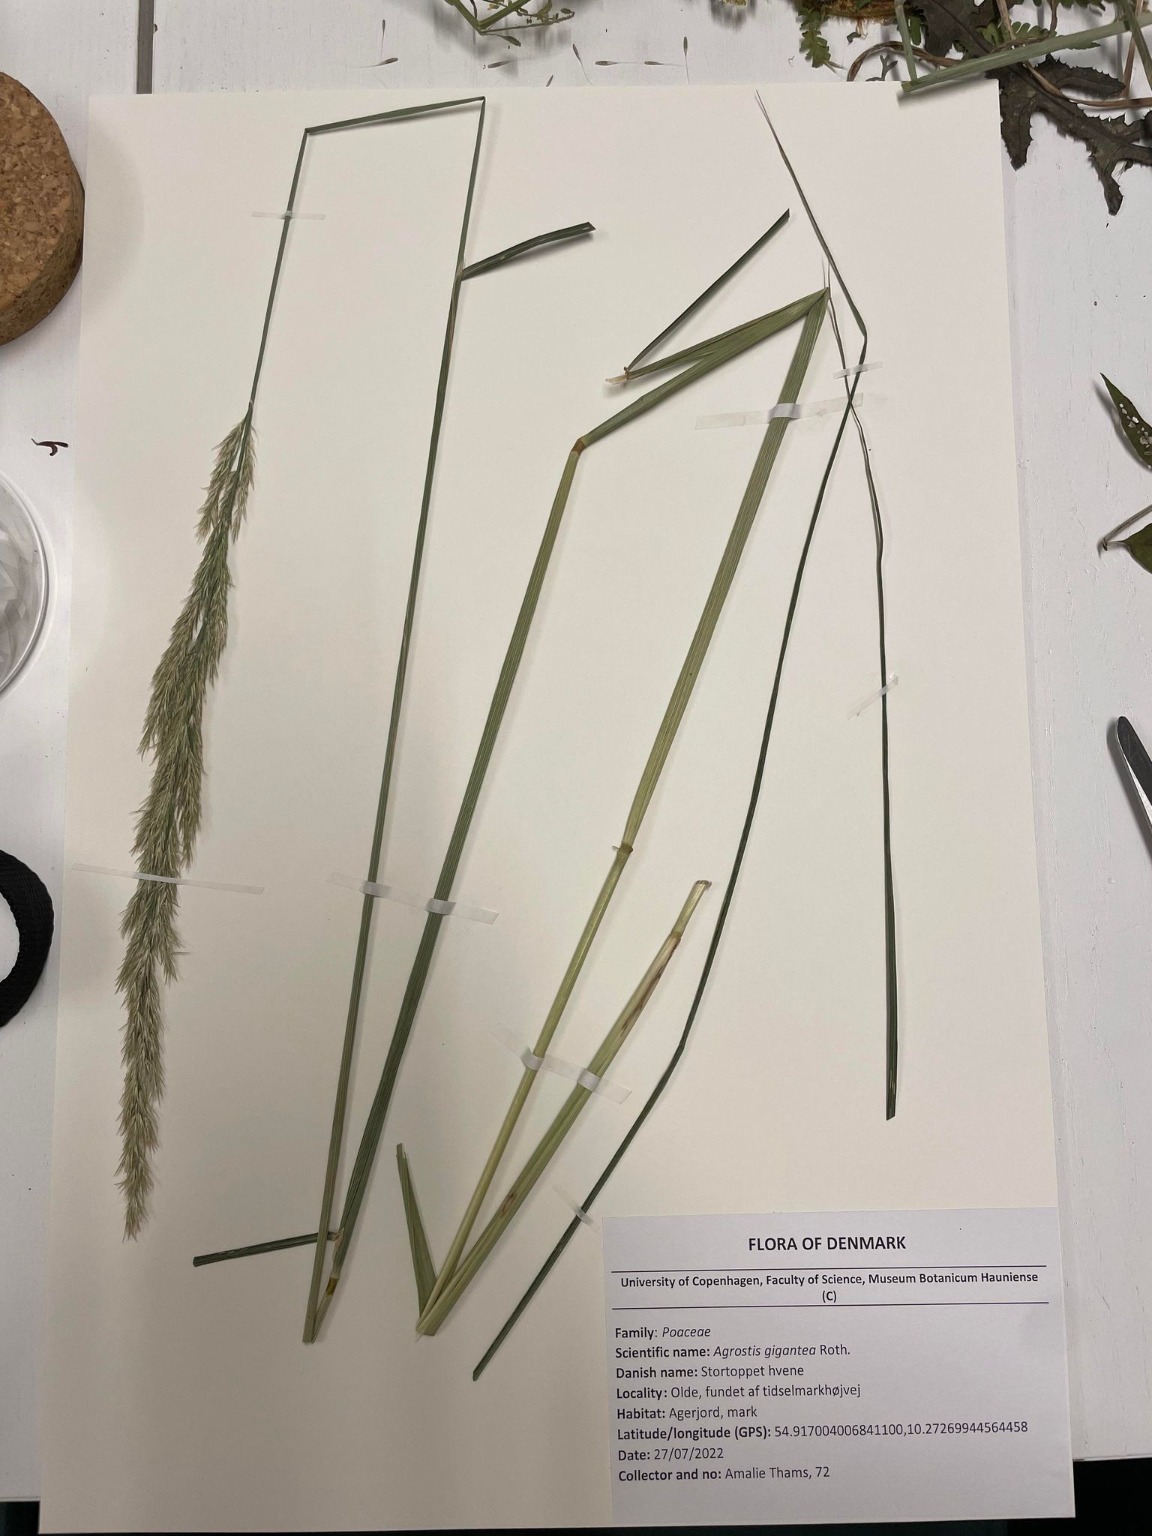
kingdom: Plantae
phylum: Tracheophyta
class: Liliopsida
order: Poales
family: Poaceae
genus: Calamagrostis
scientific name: Calamagrostis epigejos
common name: Bjerg-rørhvene
